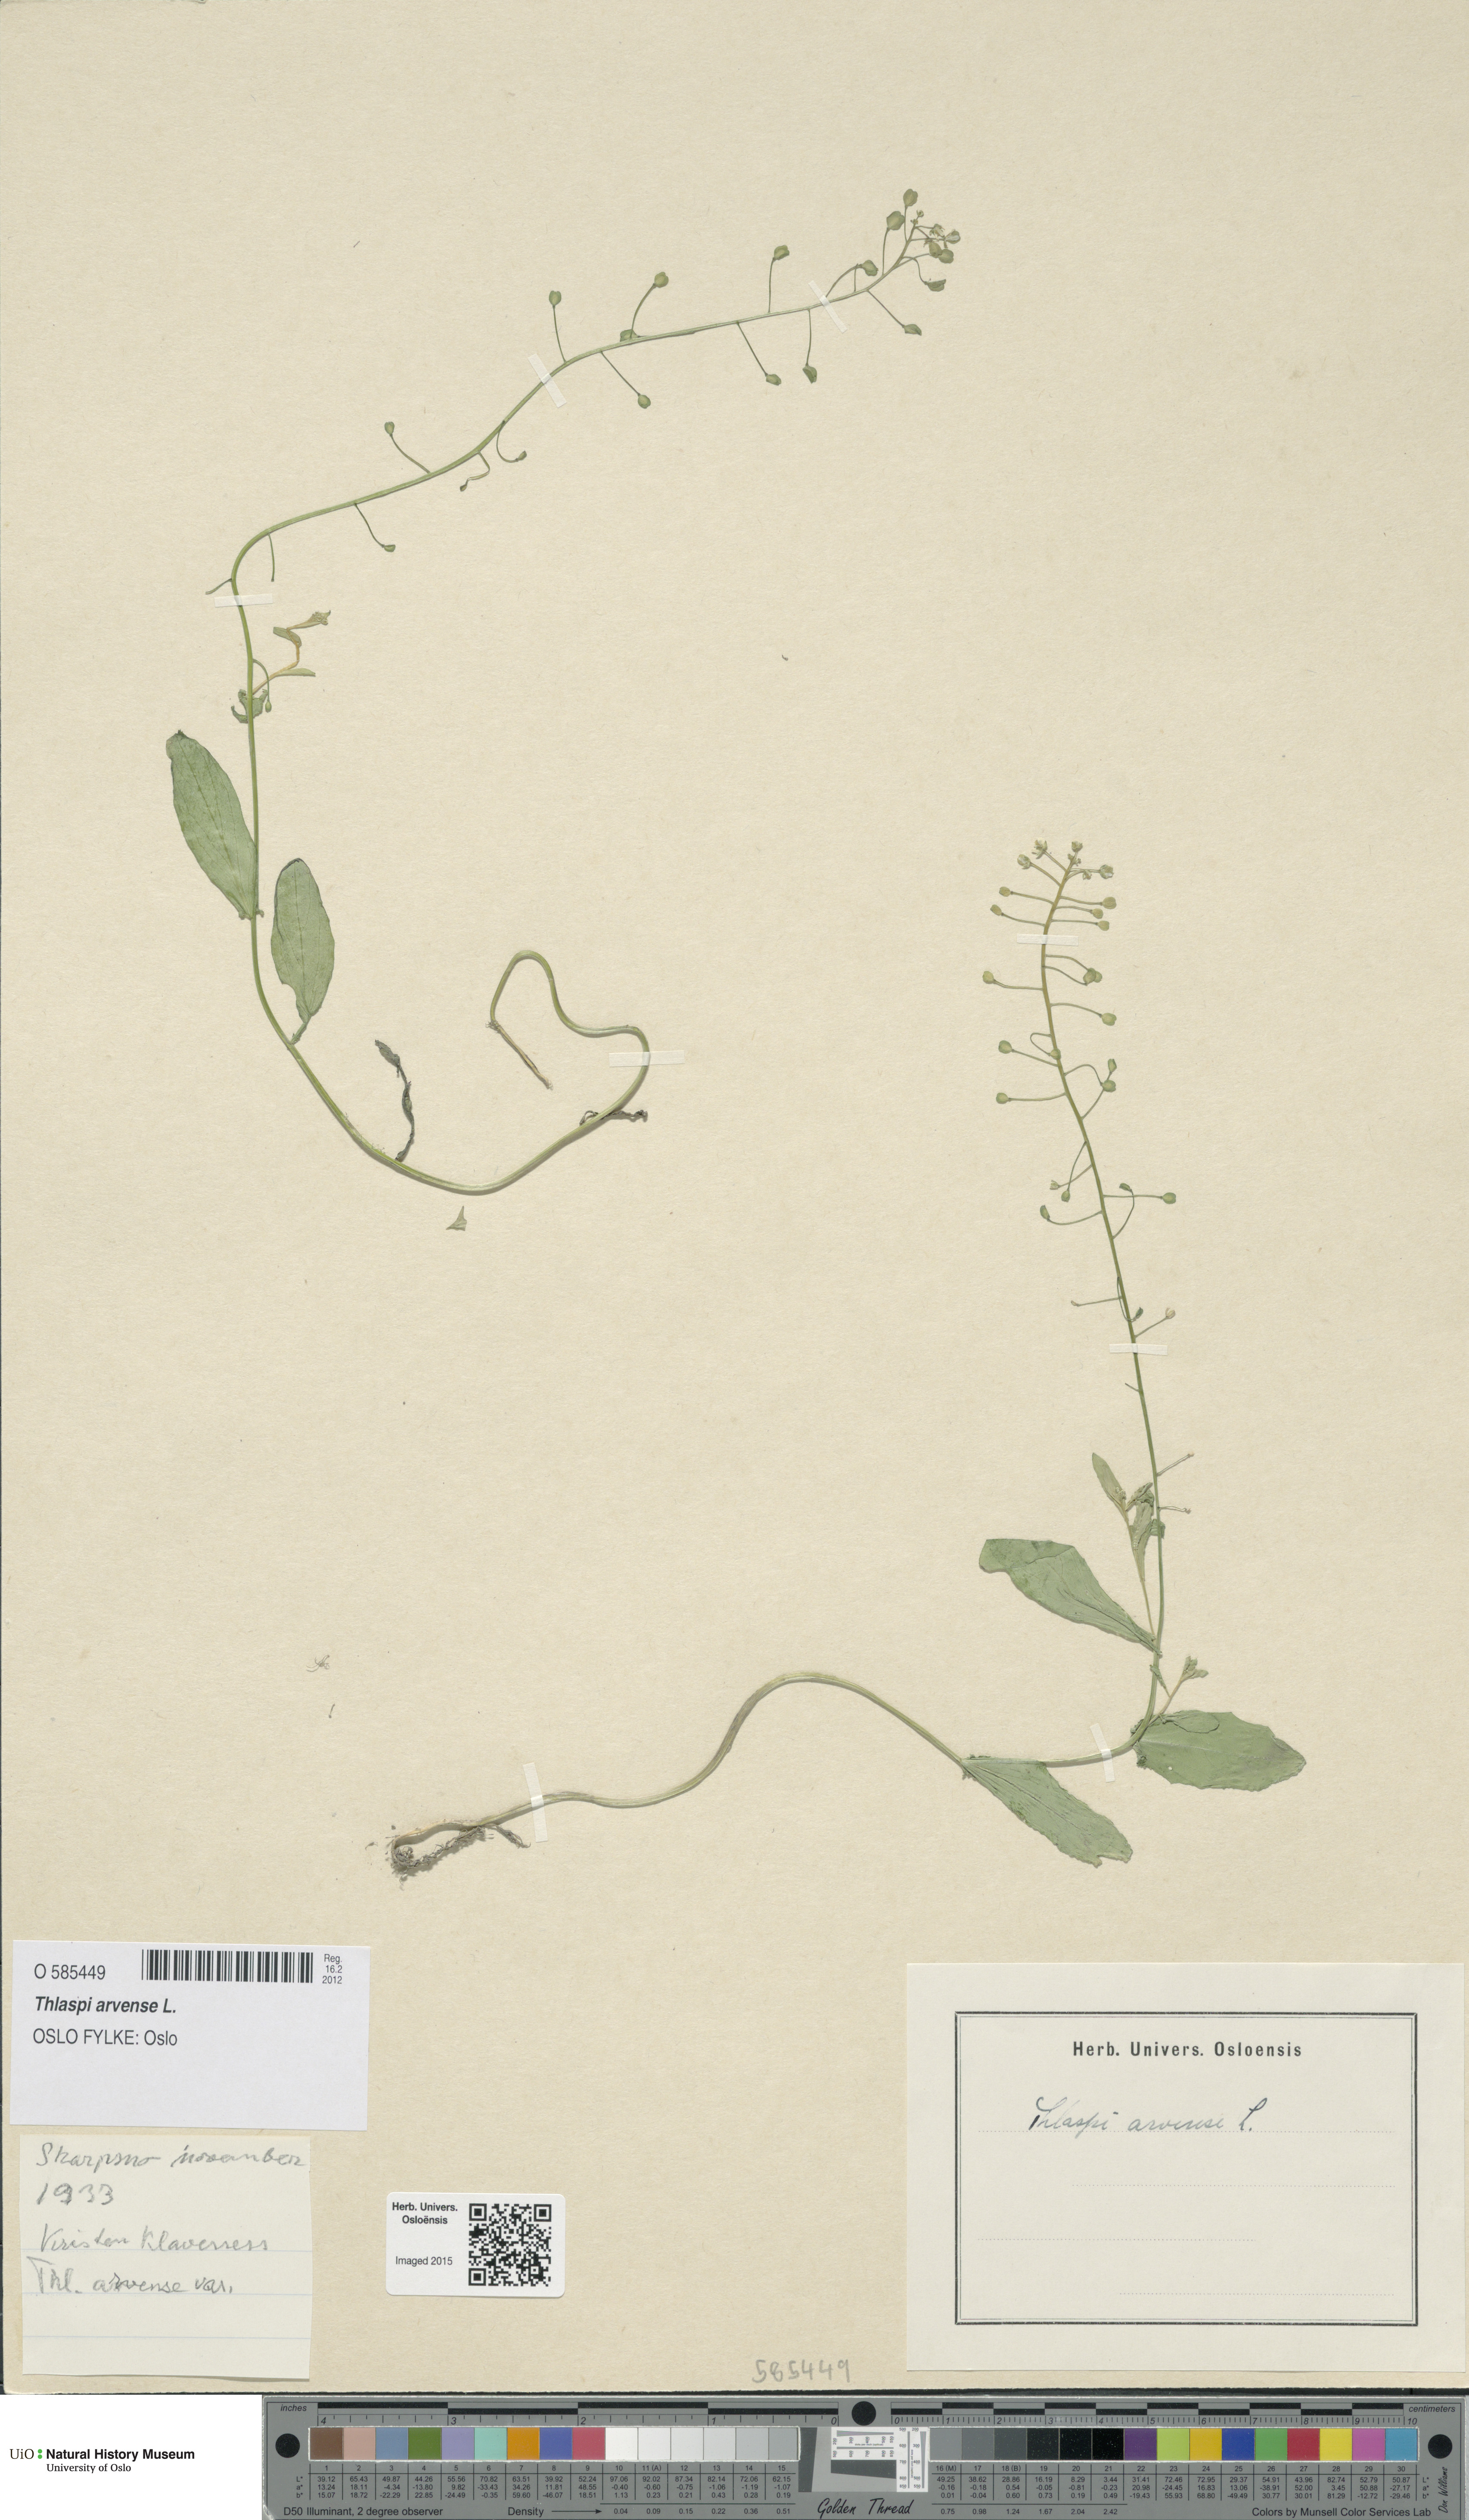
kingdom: Plantae
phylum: Tracheophyta
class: Magnoliopsida
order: Brassicales
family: Brassicaceae
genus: Thlaspi
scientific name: Thlaspi arvense
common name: Field pennycress
